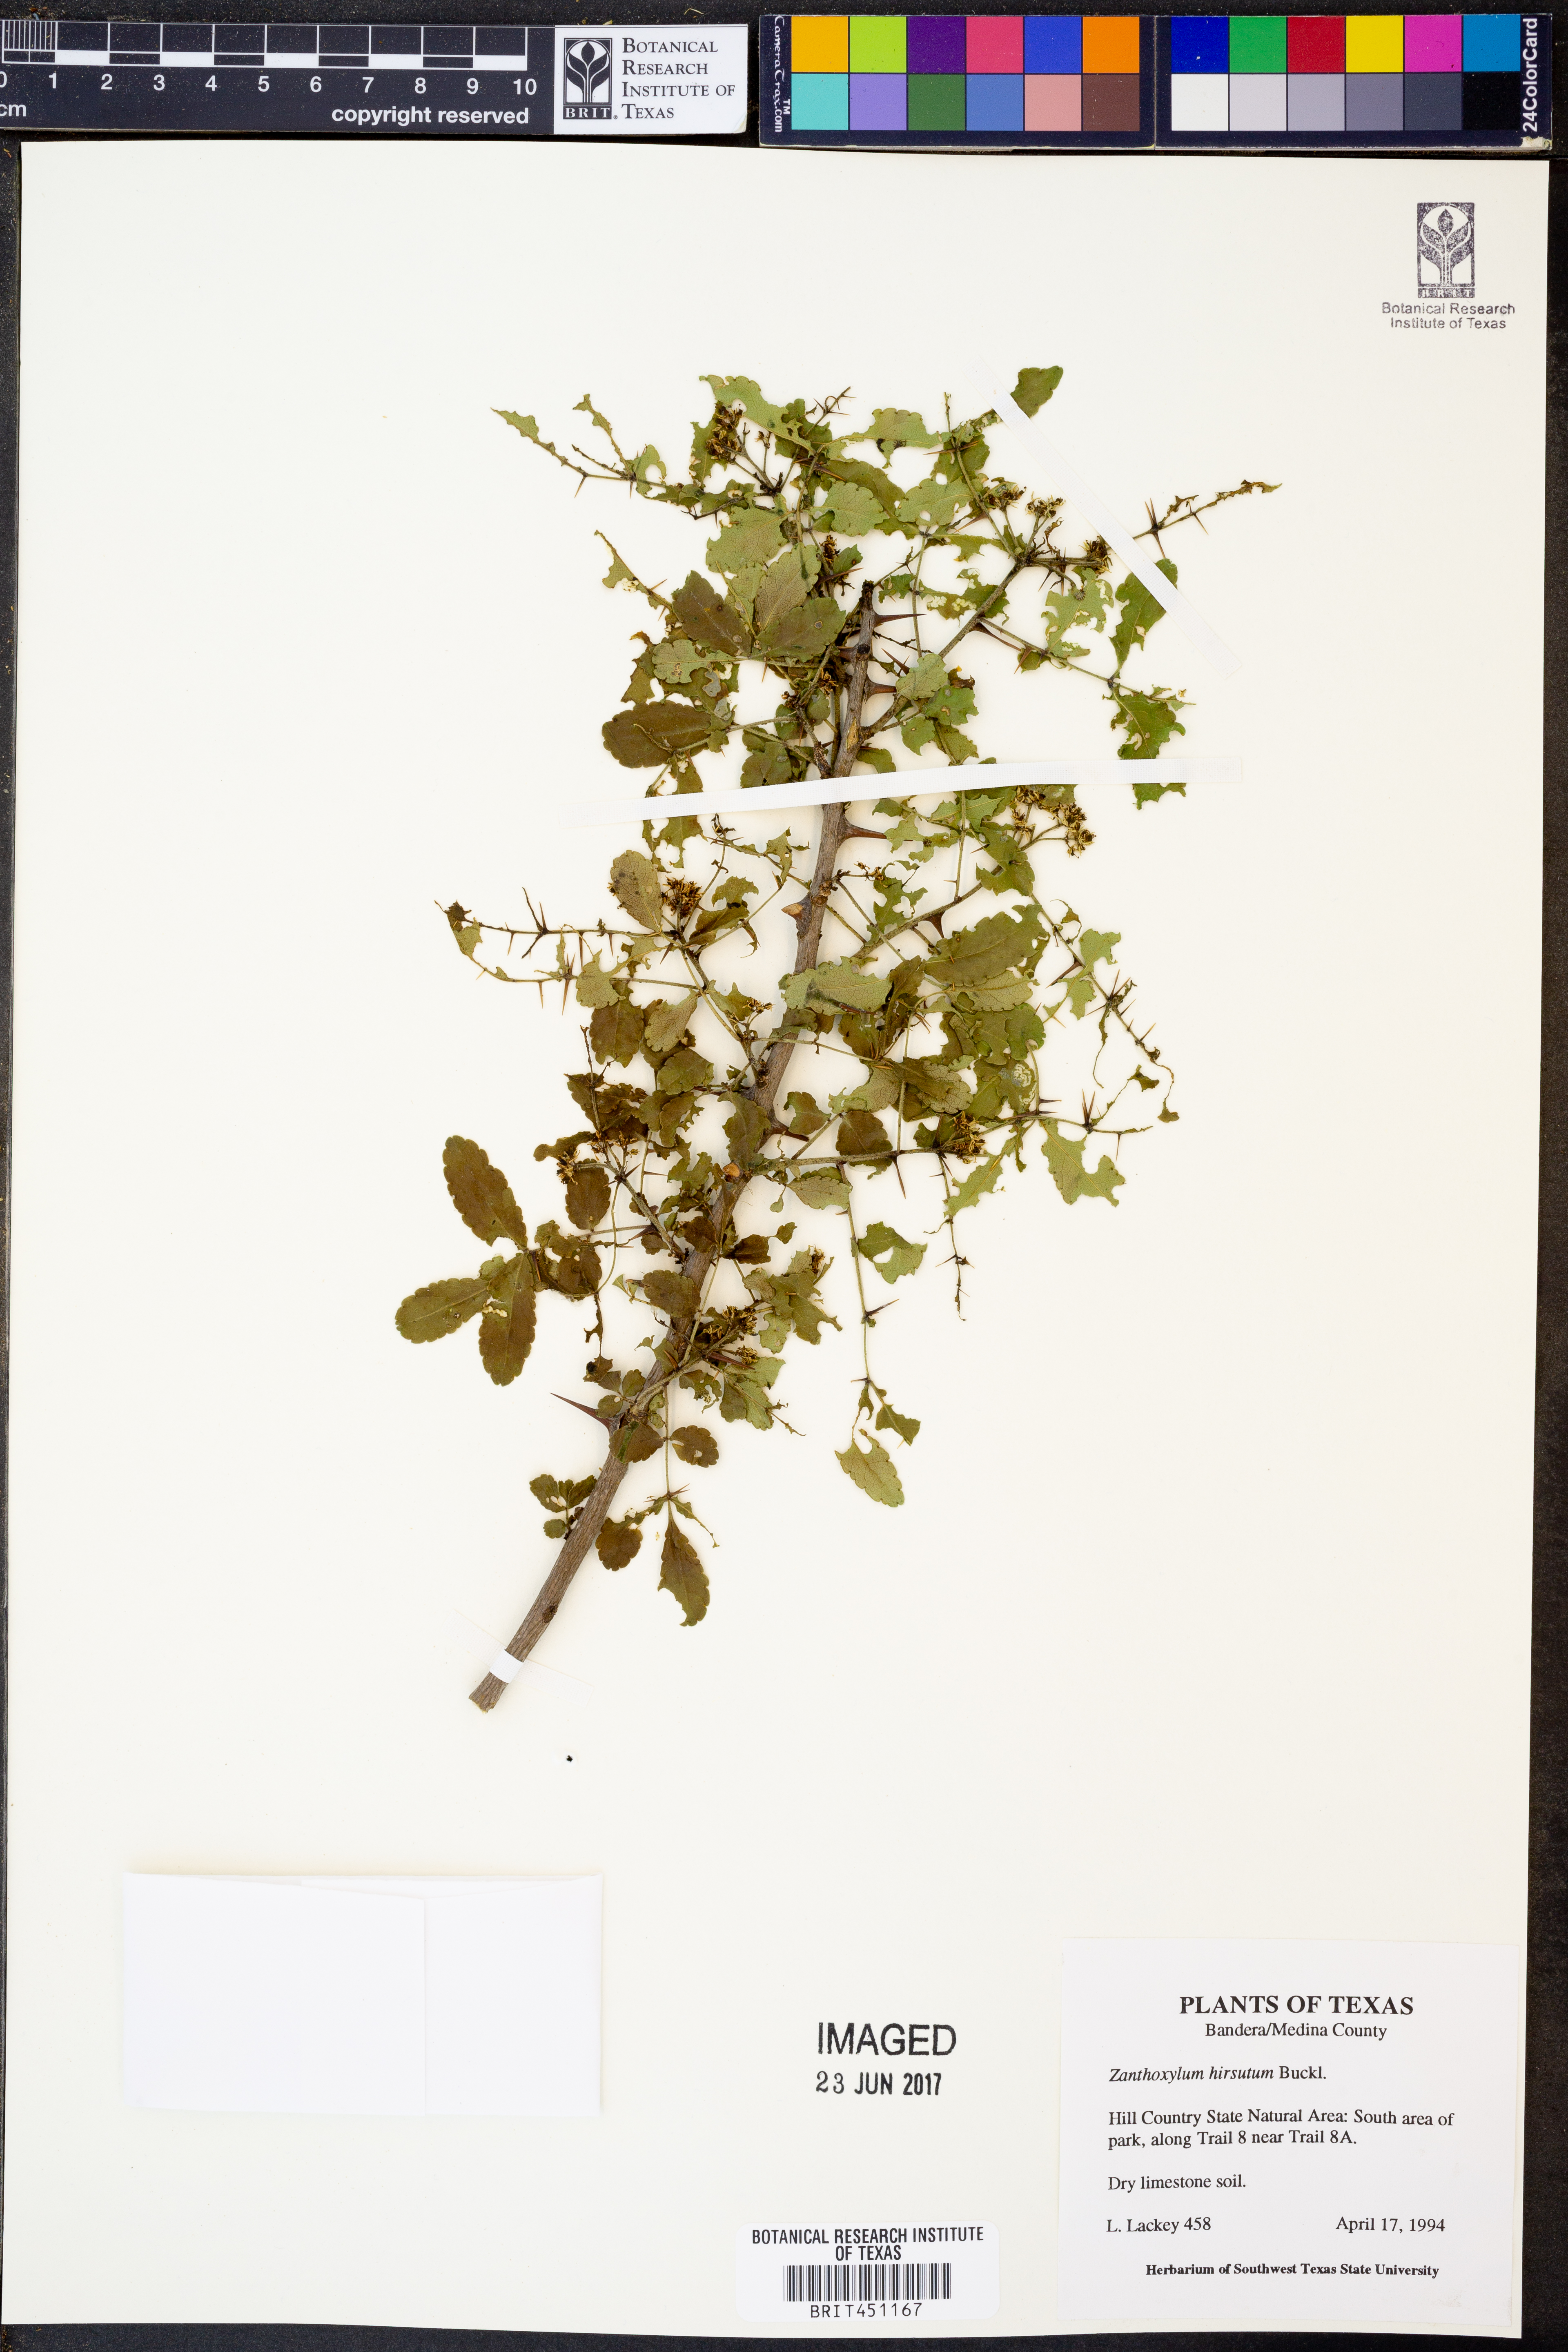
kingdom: Plantae
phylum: Tracheophyta
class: Magnoliopsida
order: Sapindales
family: Rutaceae
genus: Zanthoxylum
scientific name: Zanthoxylum clava-herculis
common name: Hercules'-club
